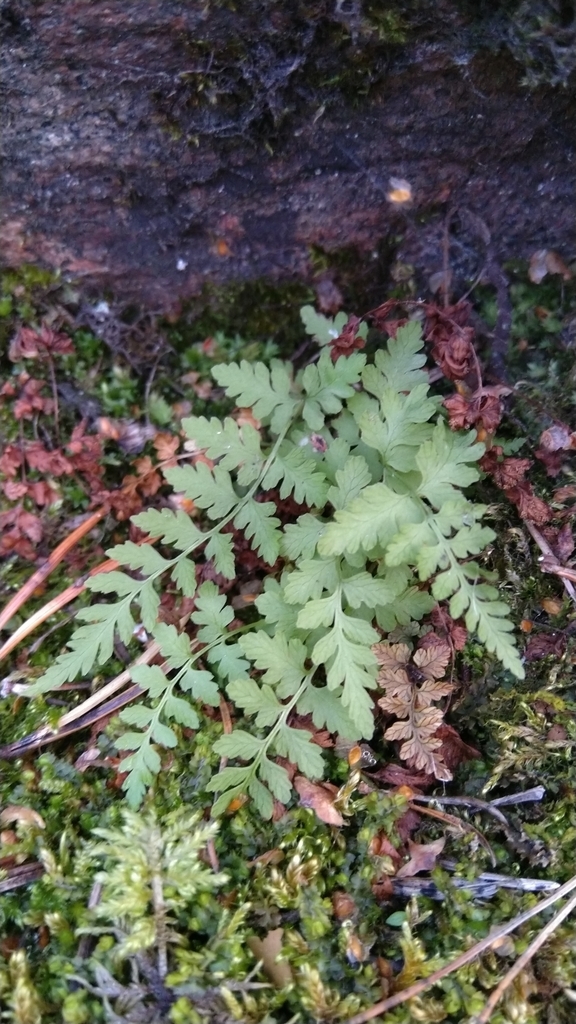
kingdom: Plantae
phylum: Tracheophyta
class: Polypodiopsida
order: Polypodiales
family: Cystopteridaceae
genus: Cystopteris
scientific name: Cystopteris fragilis
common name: Brittle bladder fern
